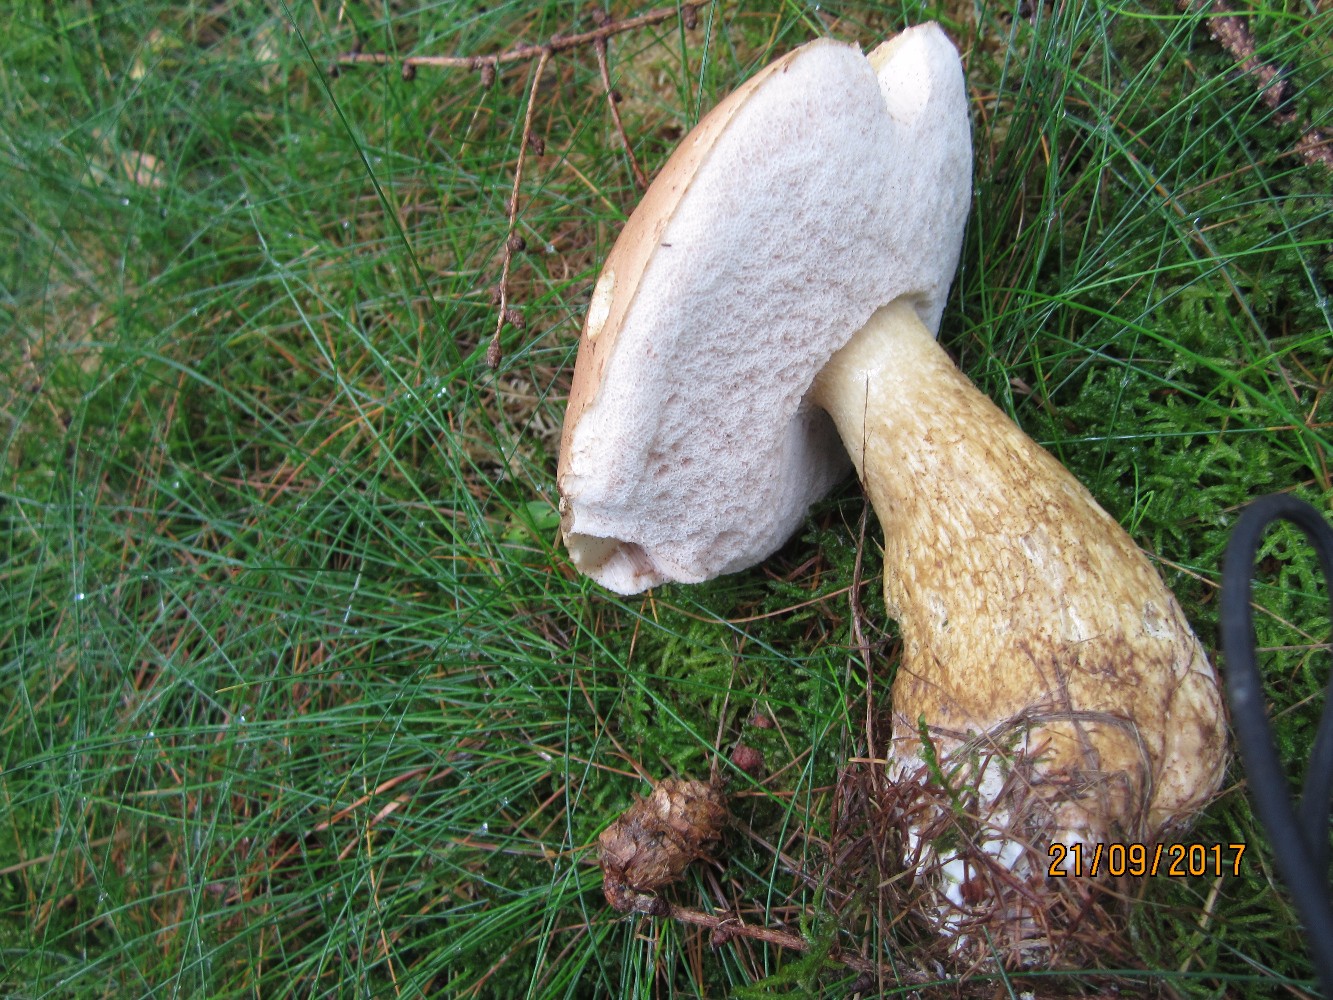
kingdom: Fungi
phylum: Basidiomycota
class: Agaricomycetes
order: Boletales
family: Boletaceae
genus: Tylopilus
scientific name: Tylopilus felleus
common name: galderørhat
